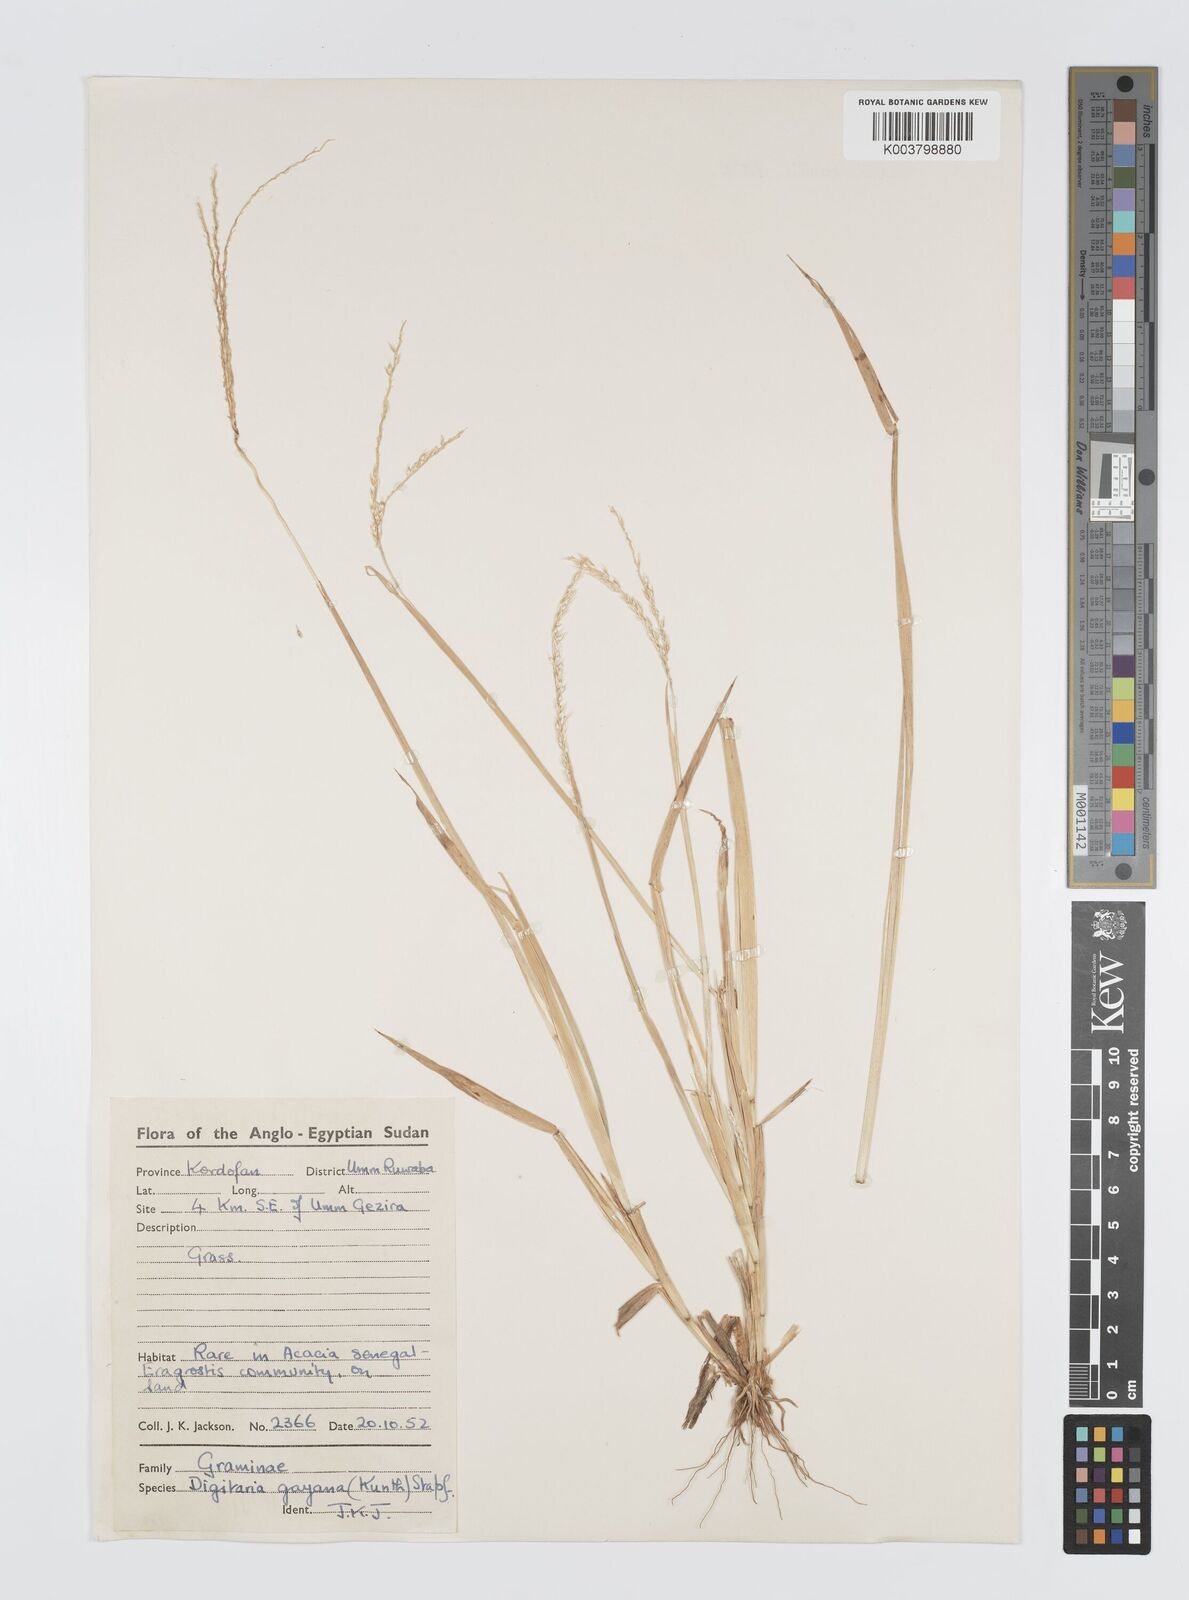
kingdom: Plantae
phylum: Tracheophyta
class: Liliopsida
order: Poales
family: Poaceae
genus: Digitaria
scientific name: Digitaria gayana
